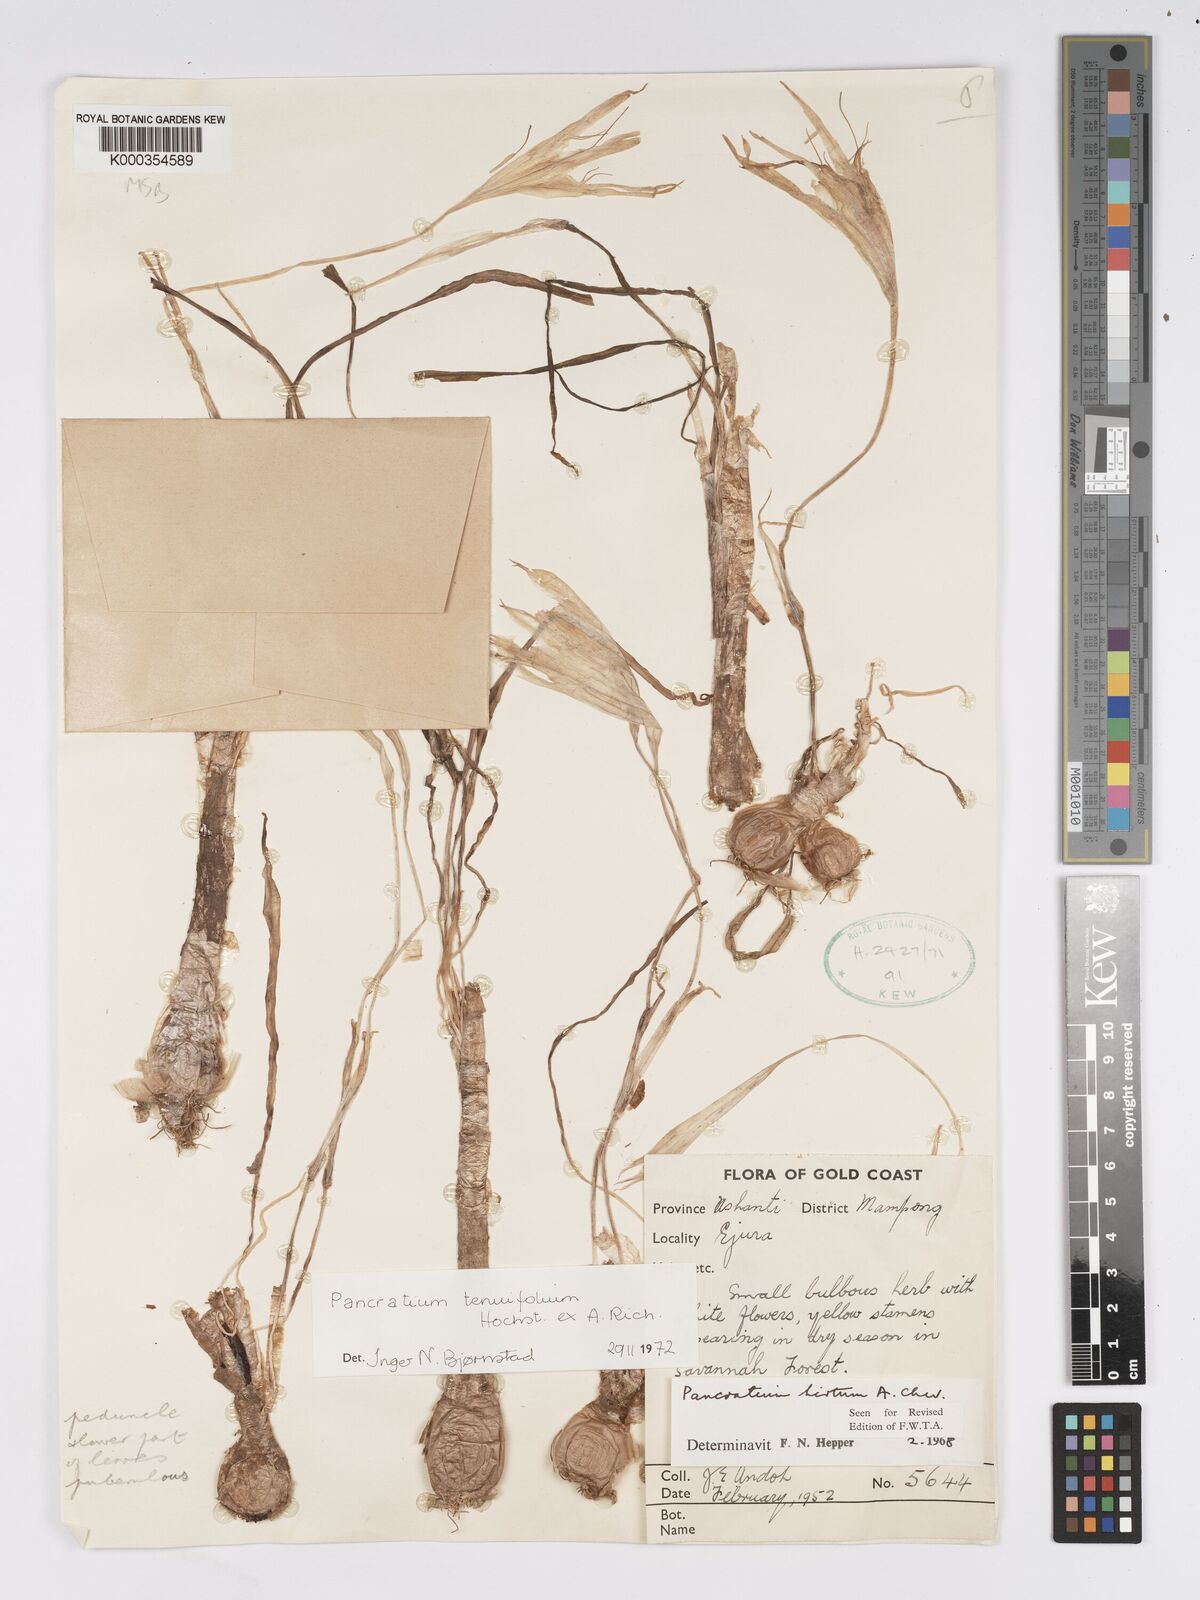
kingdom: Plantae
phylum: Tracheophyta
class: Liliopsida
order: Asparagales
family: Amaryllidaceae
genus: Pancratium
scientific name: Pancratium tenuifolium
